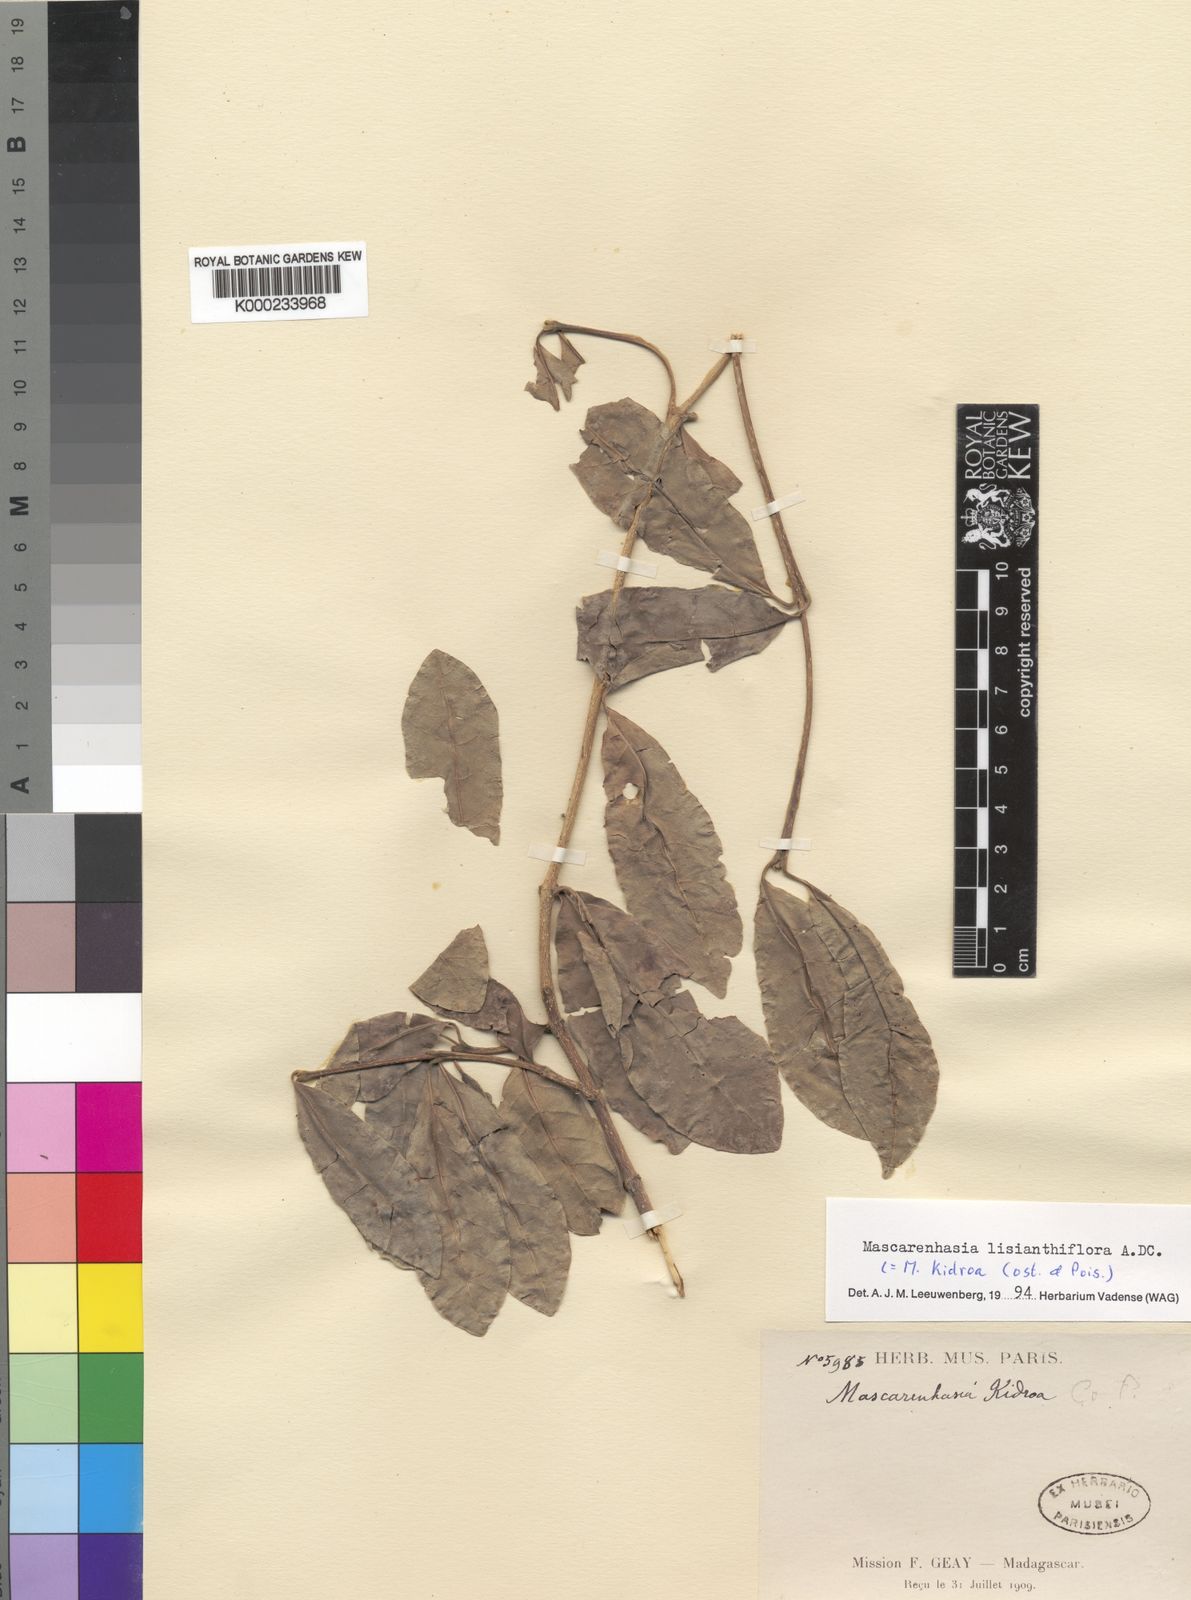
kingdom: Plantae
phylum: Tracheophyta
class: Magnoliopsida
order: Gentianales
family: Apocynaceae
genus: Mascarenhasia
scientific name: Mascarenhasia lisianthiflora
